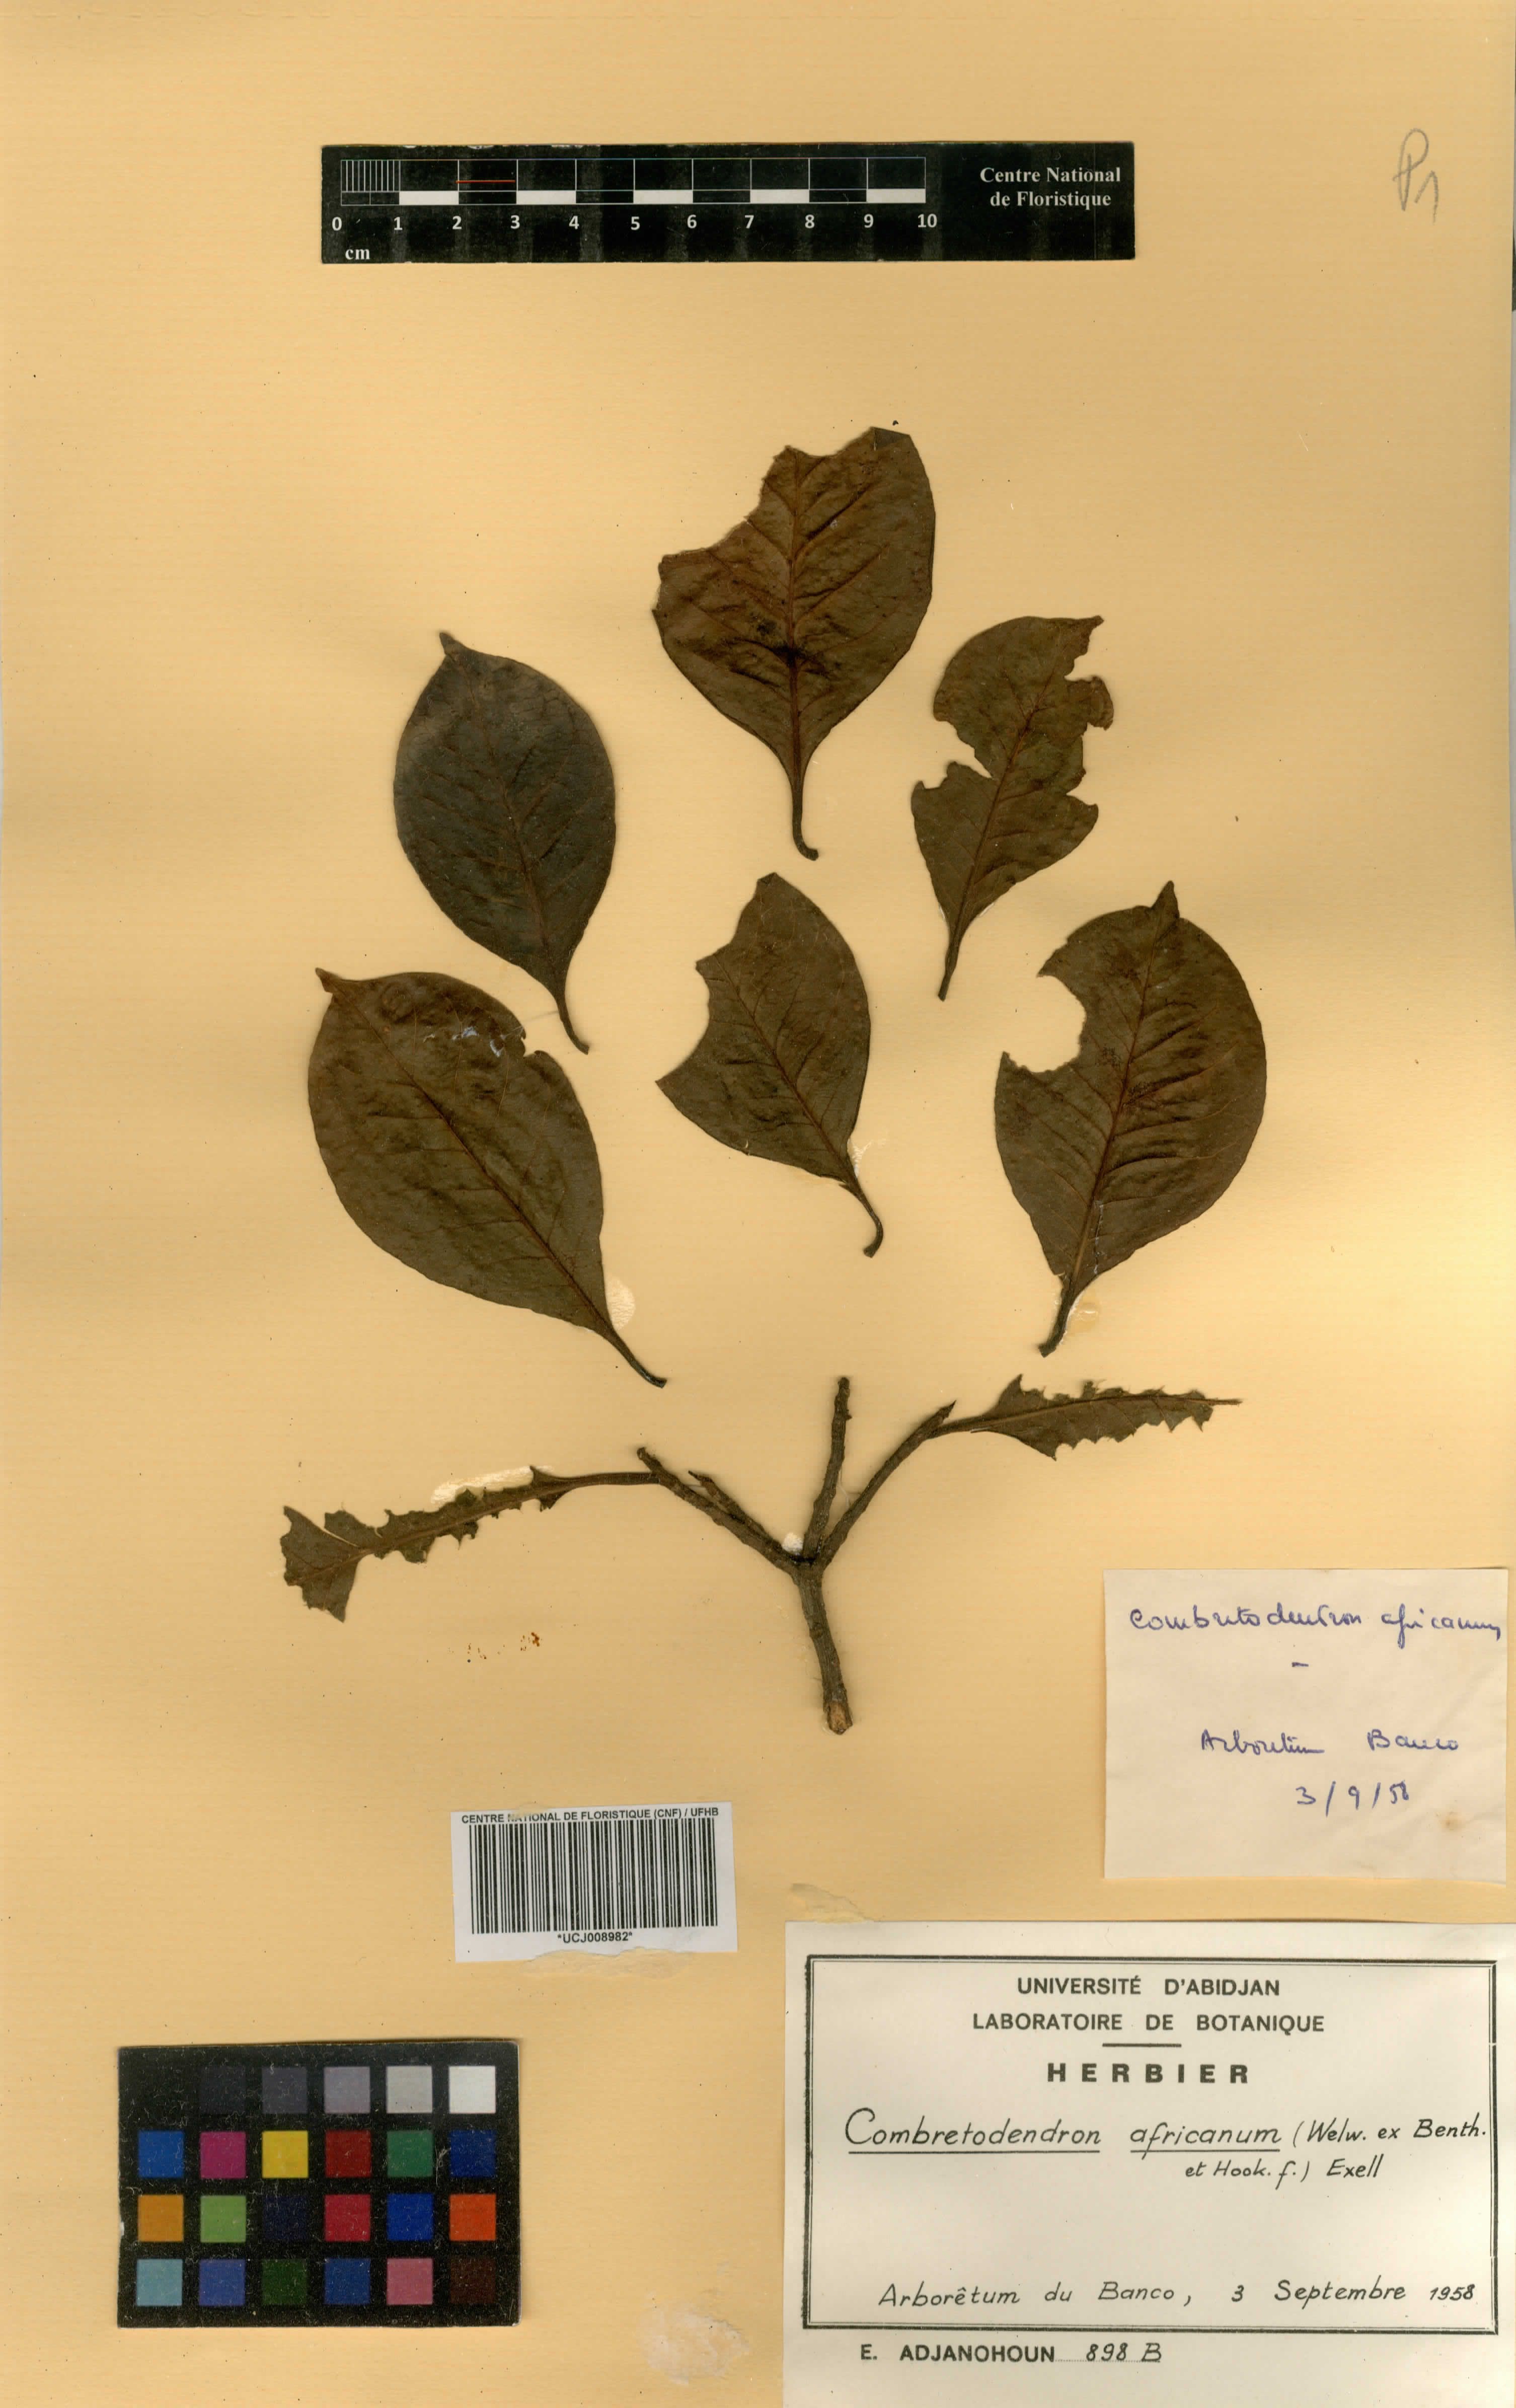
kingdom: Plantae
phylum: Tracheophyta
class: Magnoliopsida
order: Ericales
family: Lecythidaceae
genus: Petersianthus
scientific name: Petersianthus macrocarpus
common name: Essia
